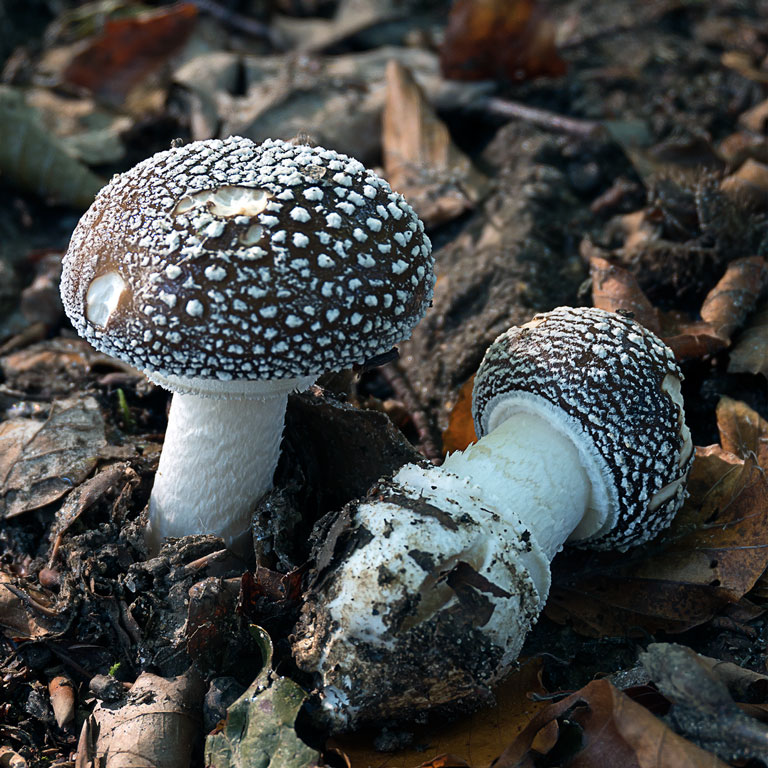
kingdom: Fungi
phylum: Basidiomycota
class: Agaricomycetes
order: Agaricales
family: Amanitaceae
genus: Amanita
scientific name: Amanita pantherina
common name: panter-fluesvamp
